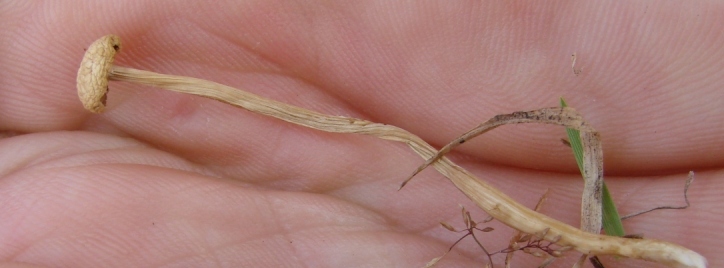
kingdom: Fungi
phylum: Basidiomycota
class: Agaricomycetes
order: Agaricales
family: Strophariaceae
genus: Agrocybe
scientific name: Agrocybe pediades
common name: almindelig agerhat
